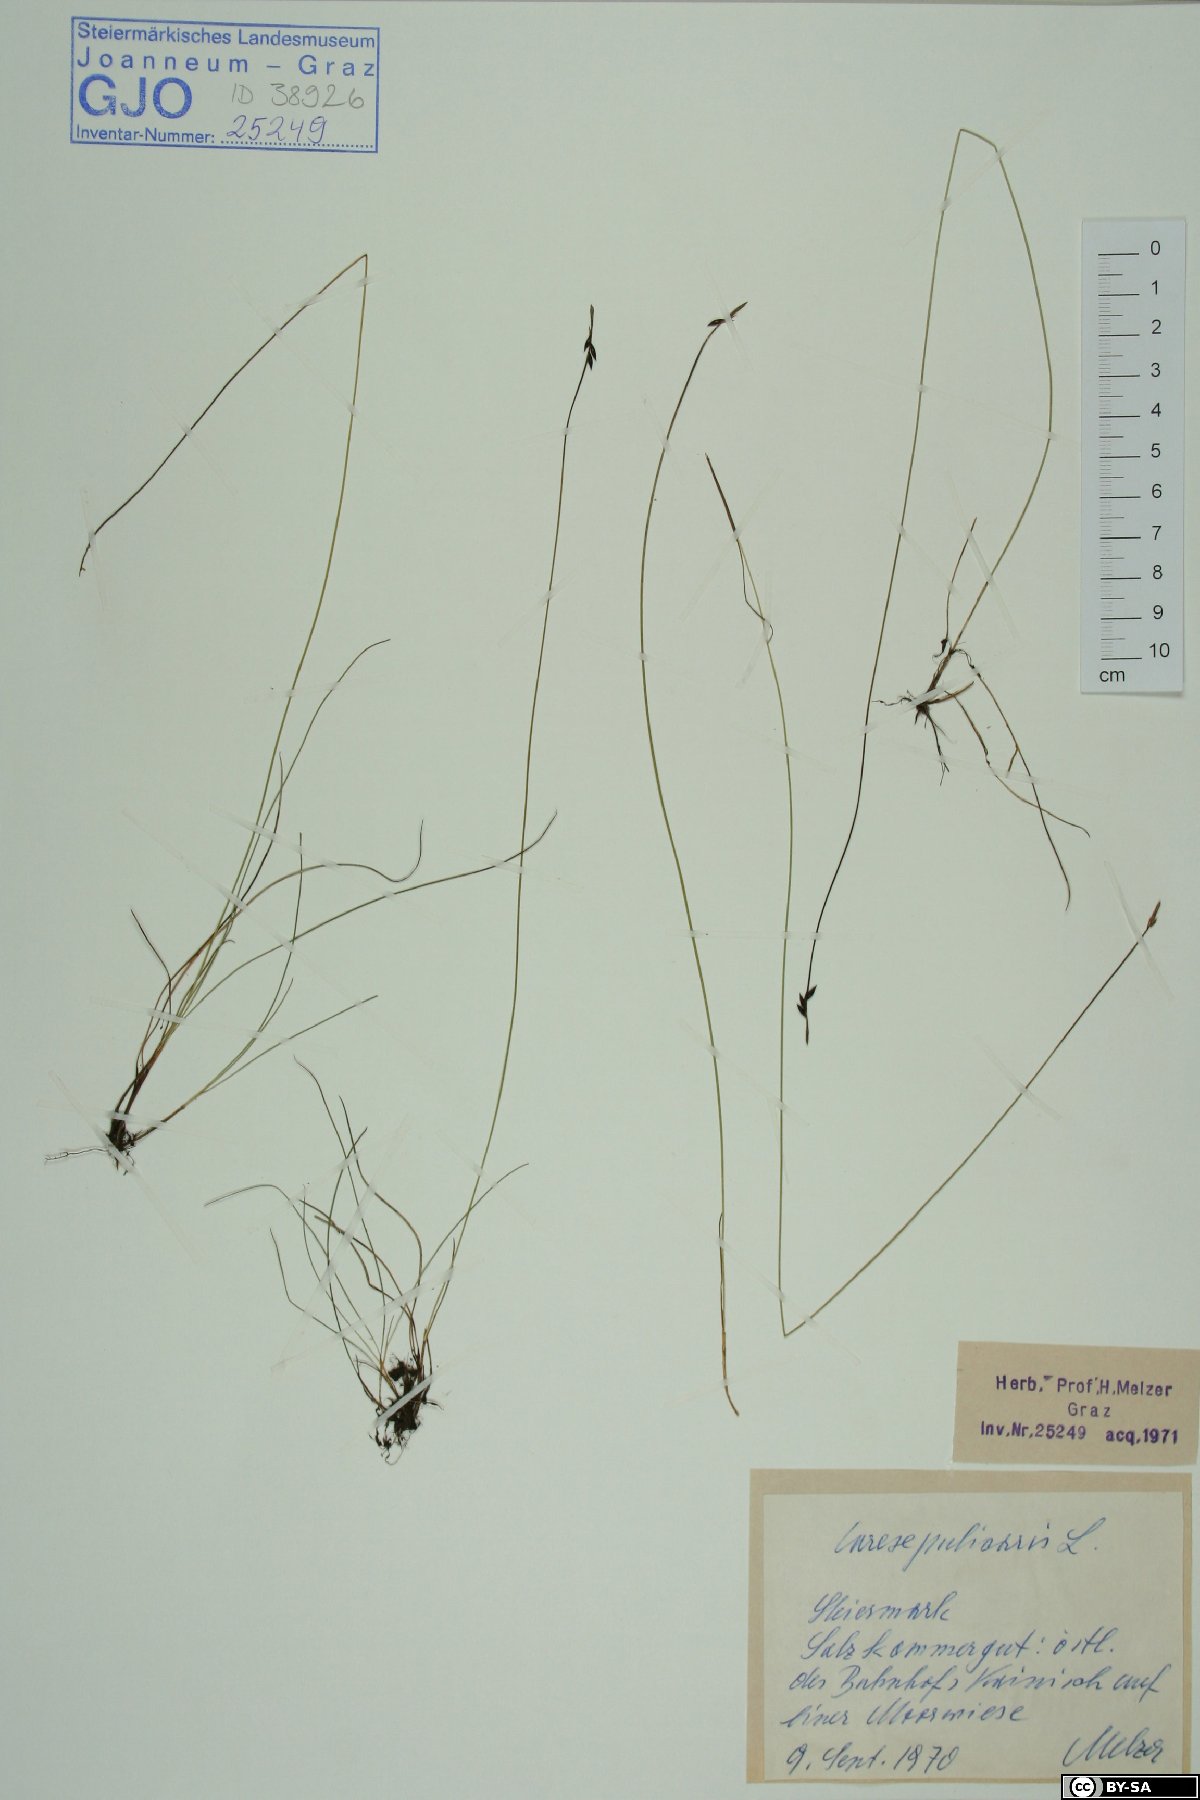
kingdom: Plantae
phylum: Tracheophyta
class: Liliopsida
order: Poales
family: Cyperaceae
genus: Carex
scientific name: Carex pulicaris
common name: Flea sedge
